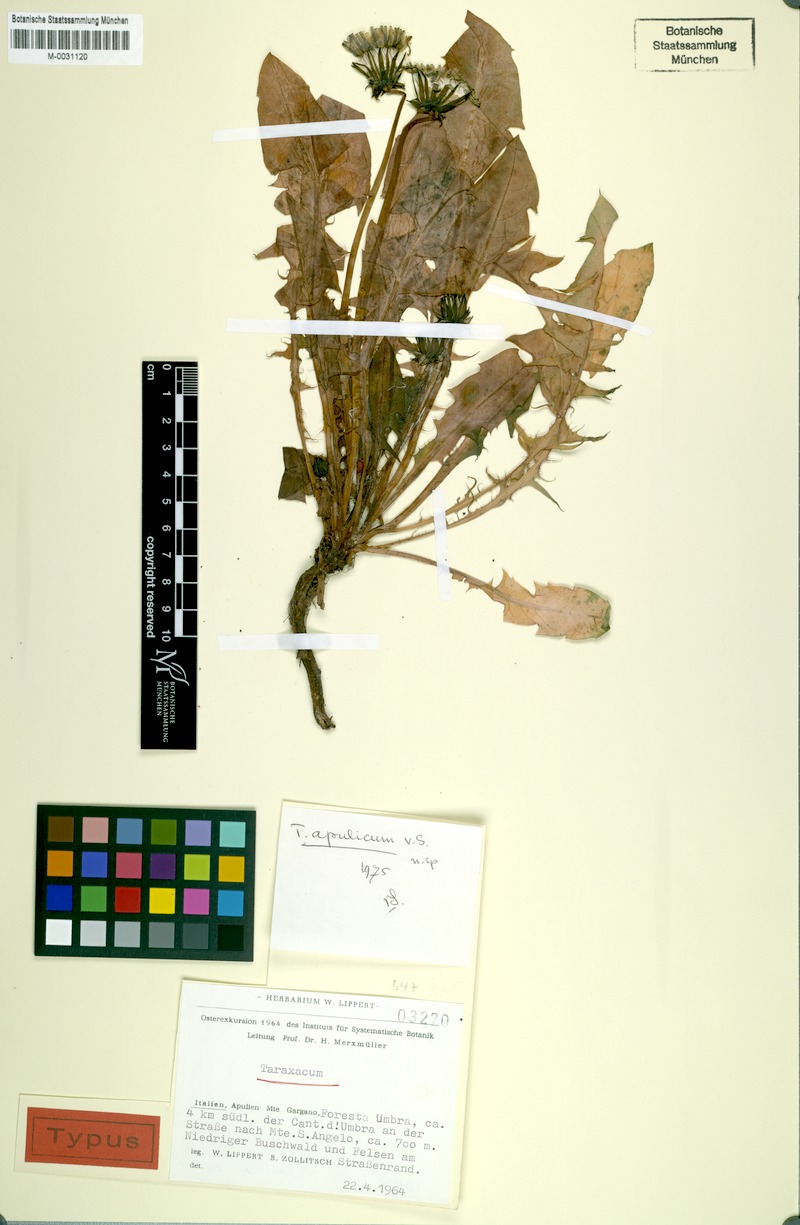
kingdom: Plantae
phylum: Tracheophyta
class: Magnoliopsida
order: Asterales
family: Asteraceae
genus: Taraxacum
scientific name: Taraxacum apulicum
